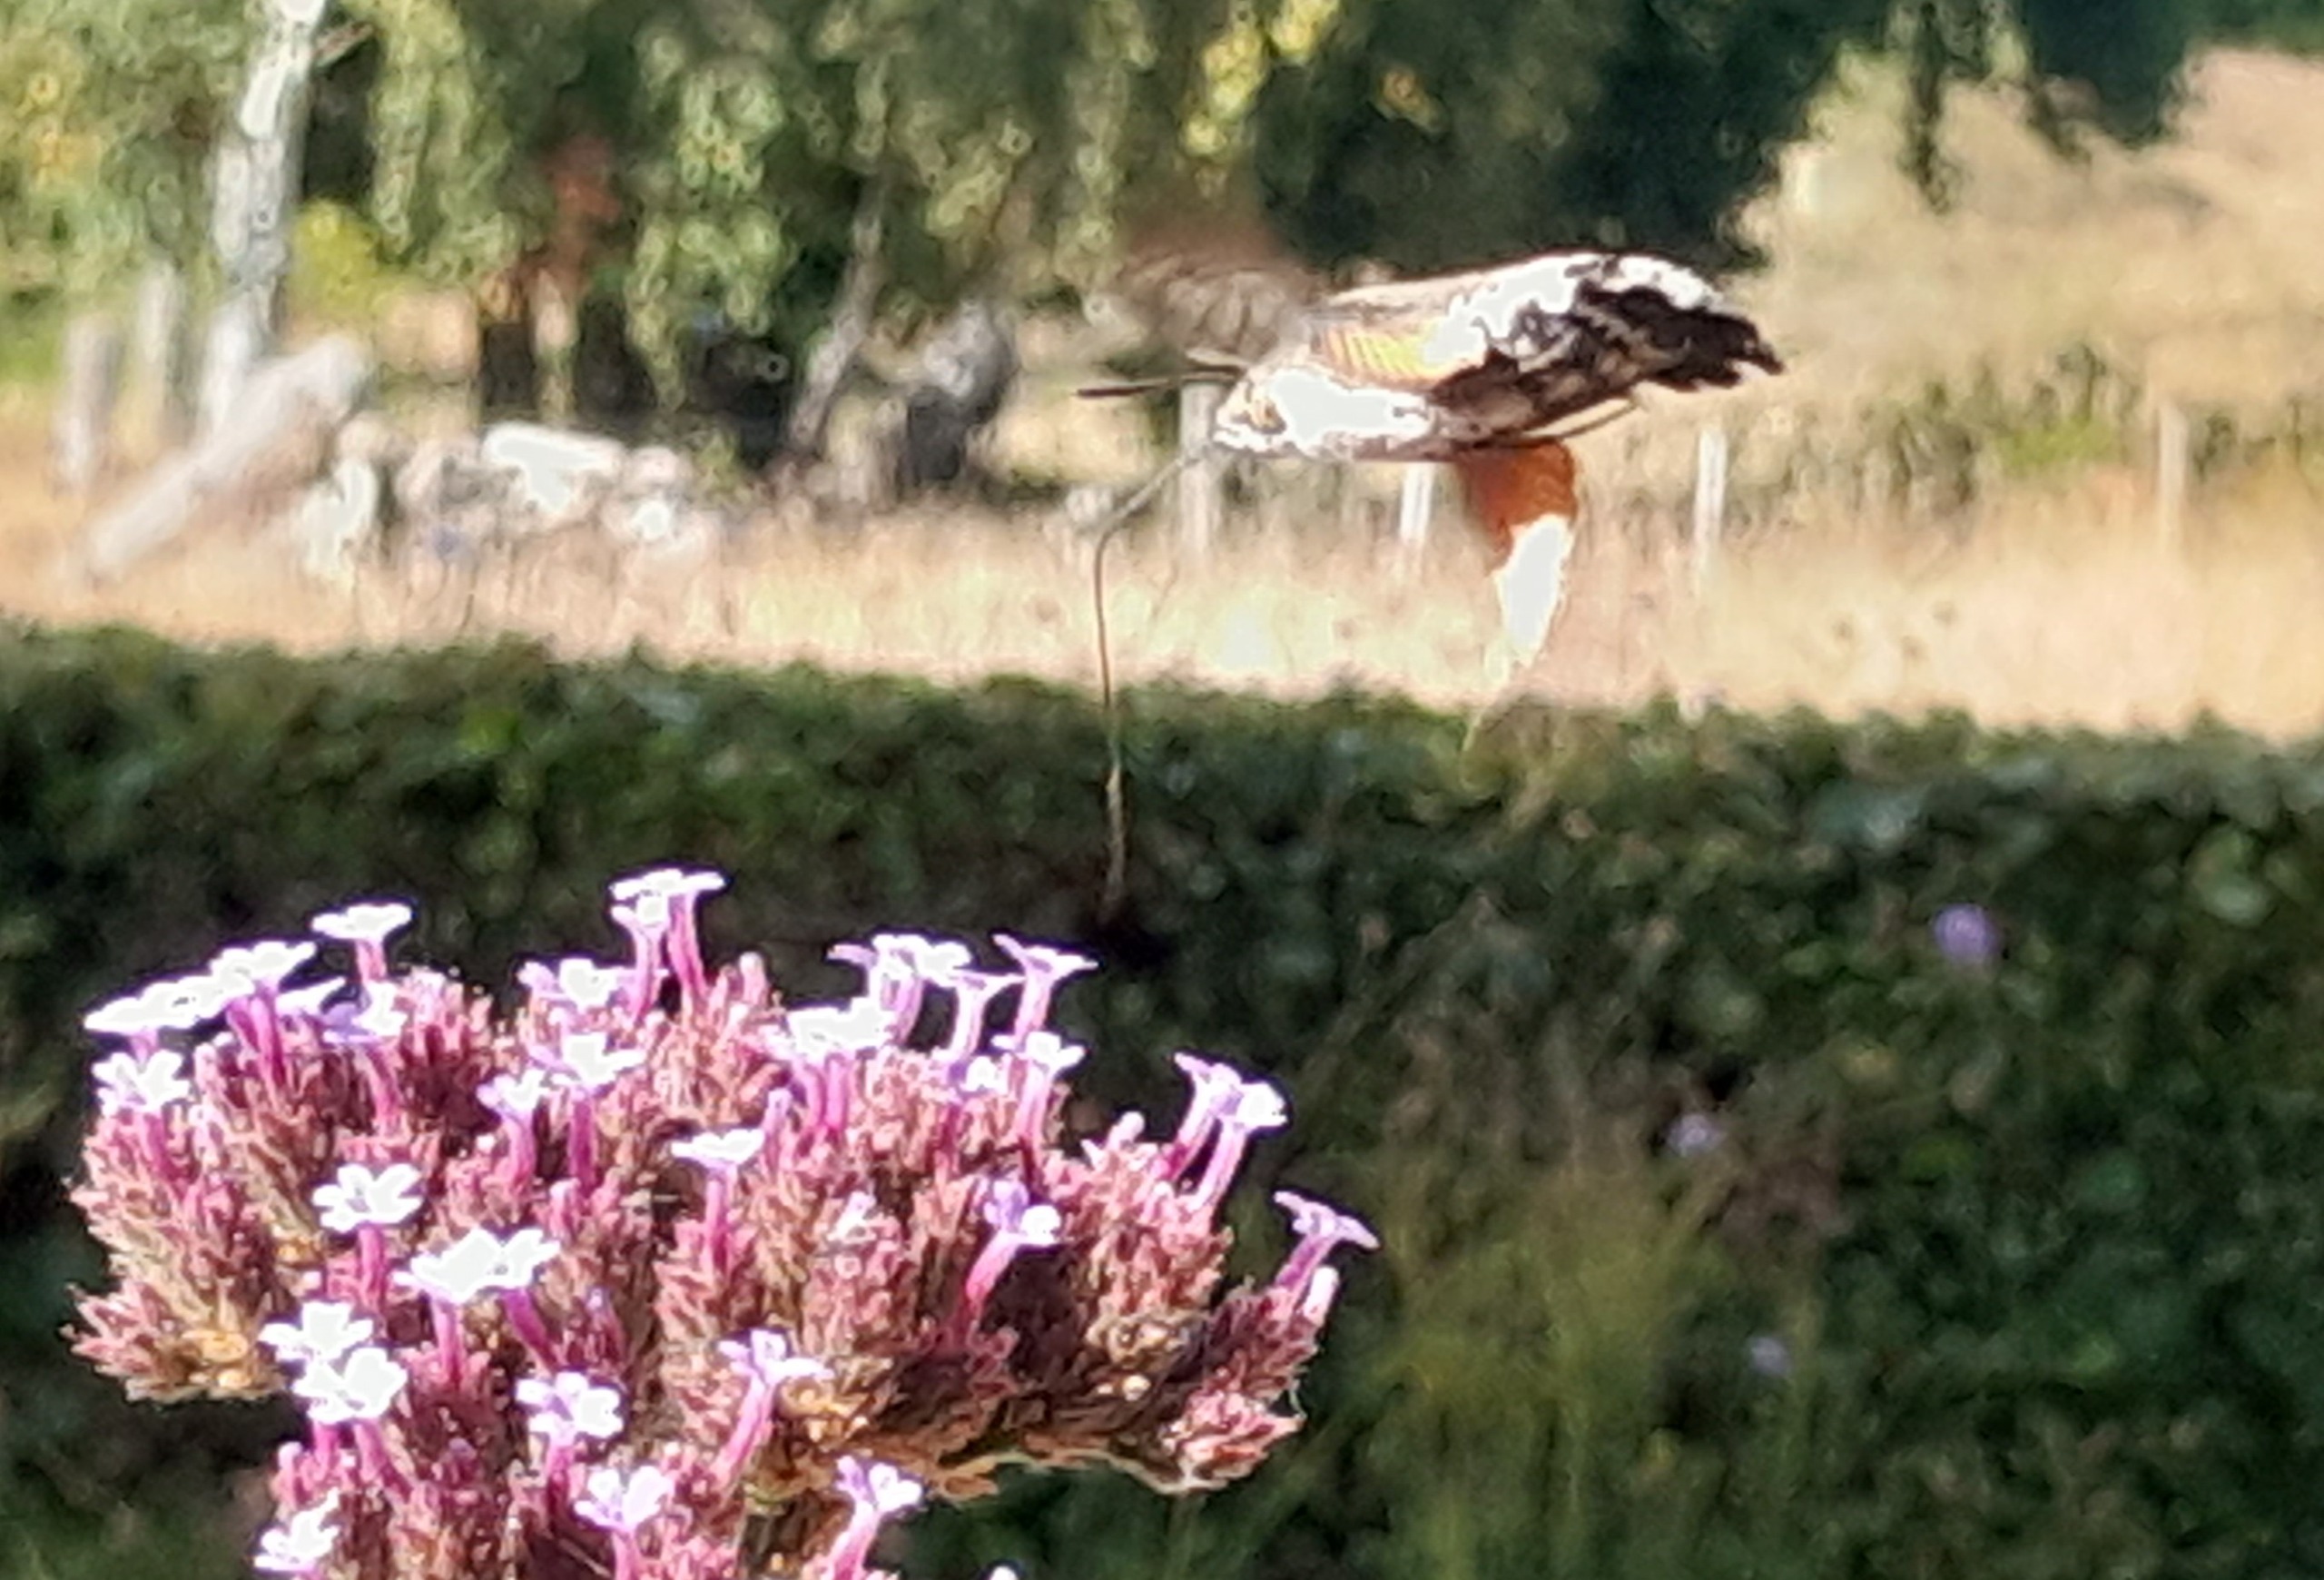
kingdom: Animalia
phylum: Arthropoda
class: Insecta
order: Lepidoptera
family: Sphingidae
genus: Macroglossum
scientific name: Macroglossum stellatarum
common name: Duehale
